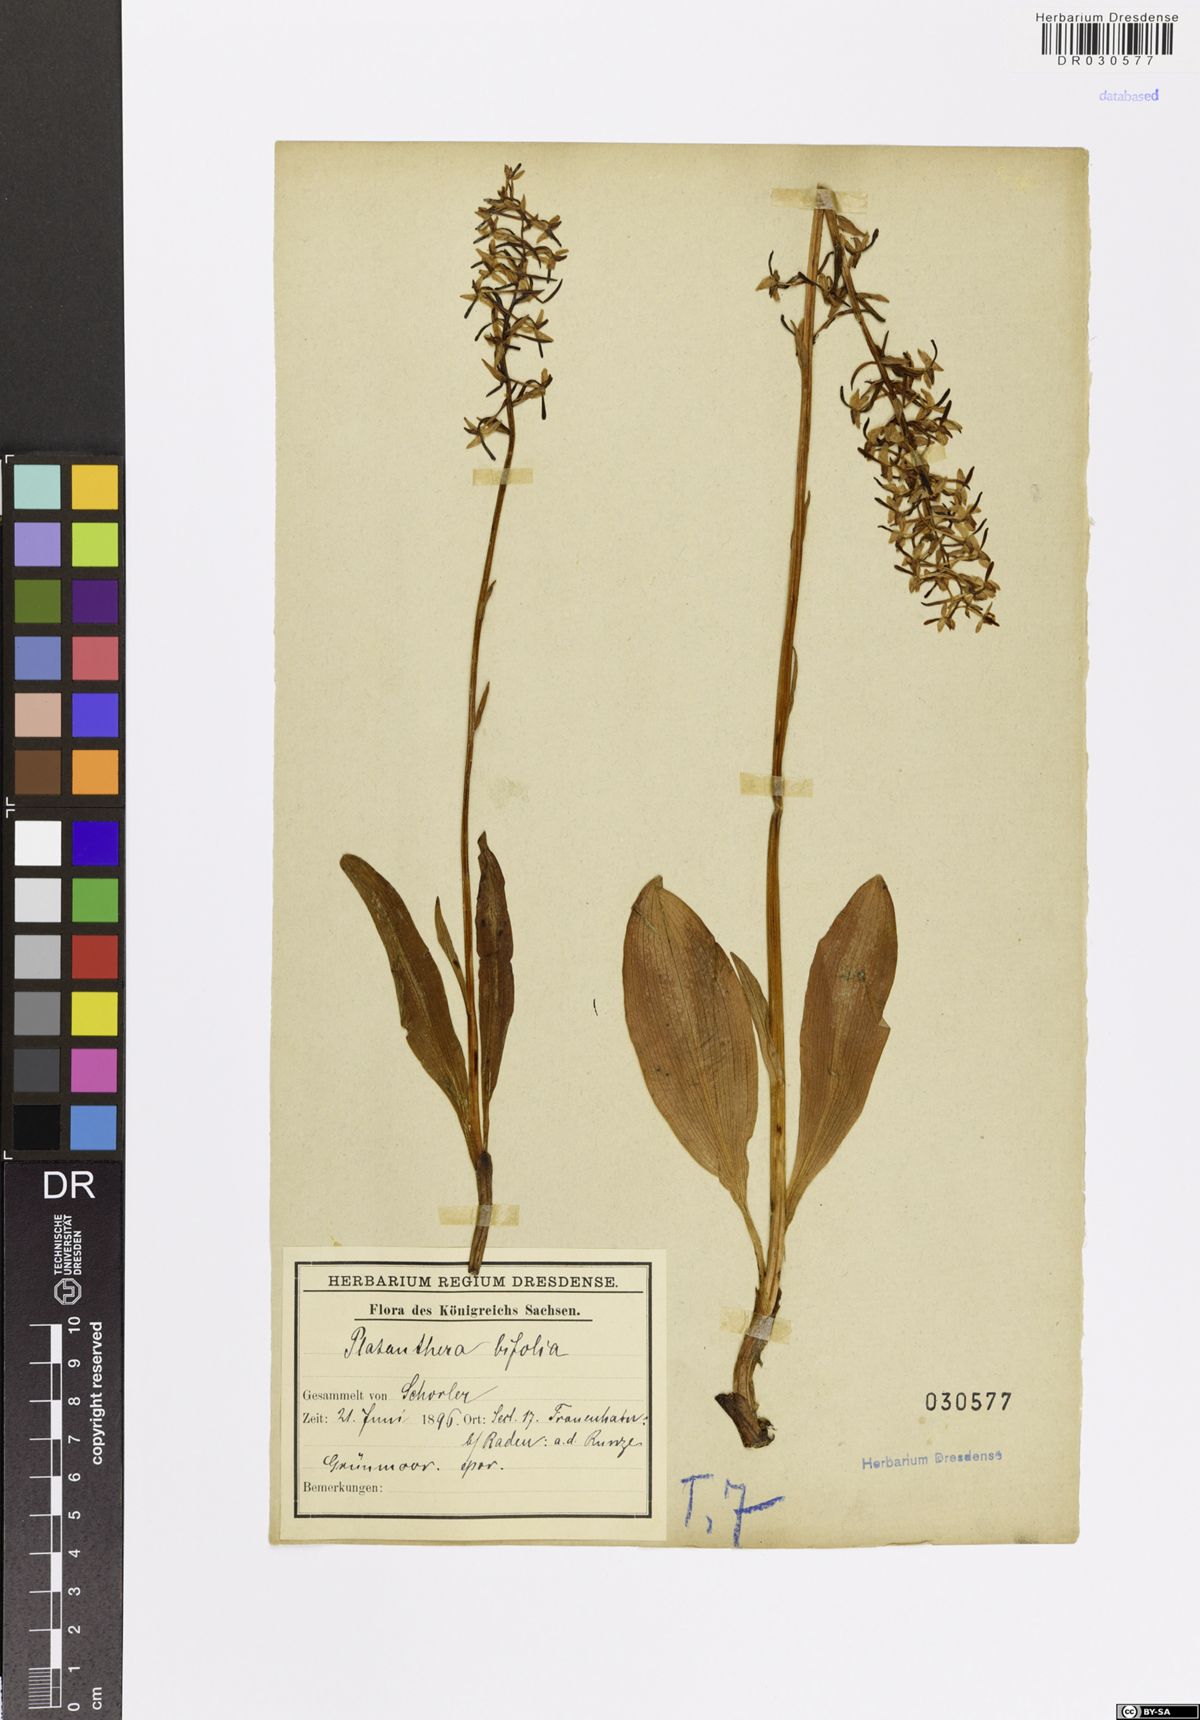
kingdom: Plantae
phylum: Tracheophyta
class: Liliopsida
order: Asparagales
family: Orchidaceae
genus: Platanthera
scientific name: Platanthera bifolia
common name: Lesser butterfly-orchid
